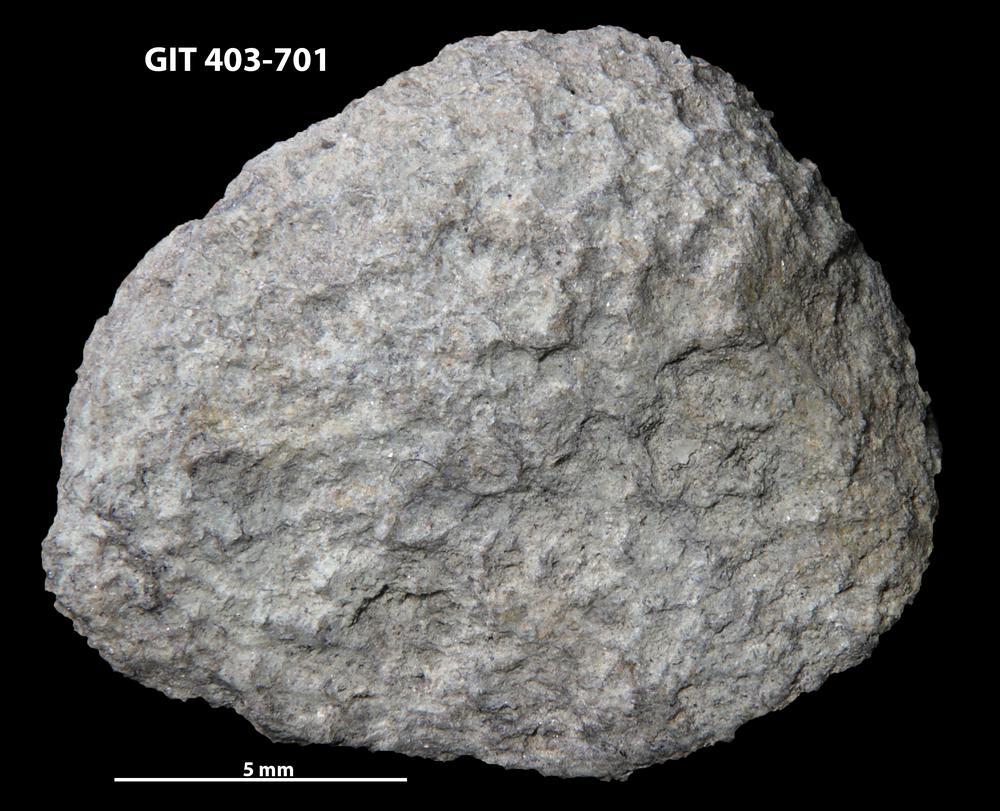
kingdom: Animalia
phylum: Cnidaria
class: Anthozoa
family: Favositidae
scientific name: Favositidae
